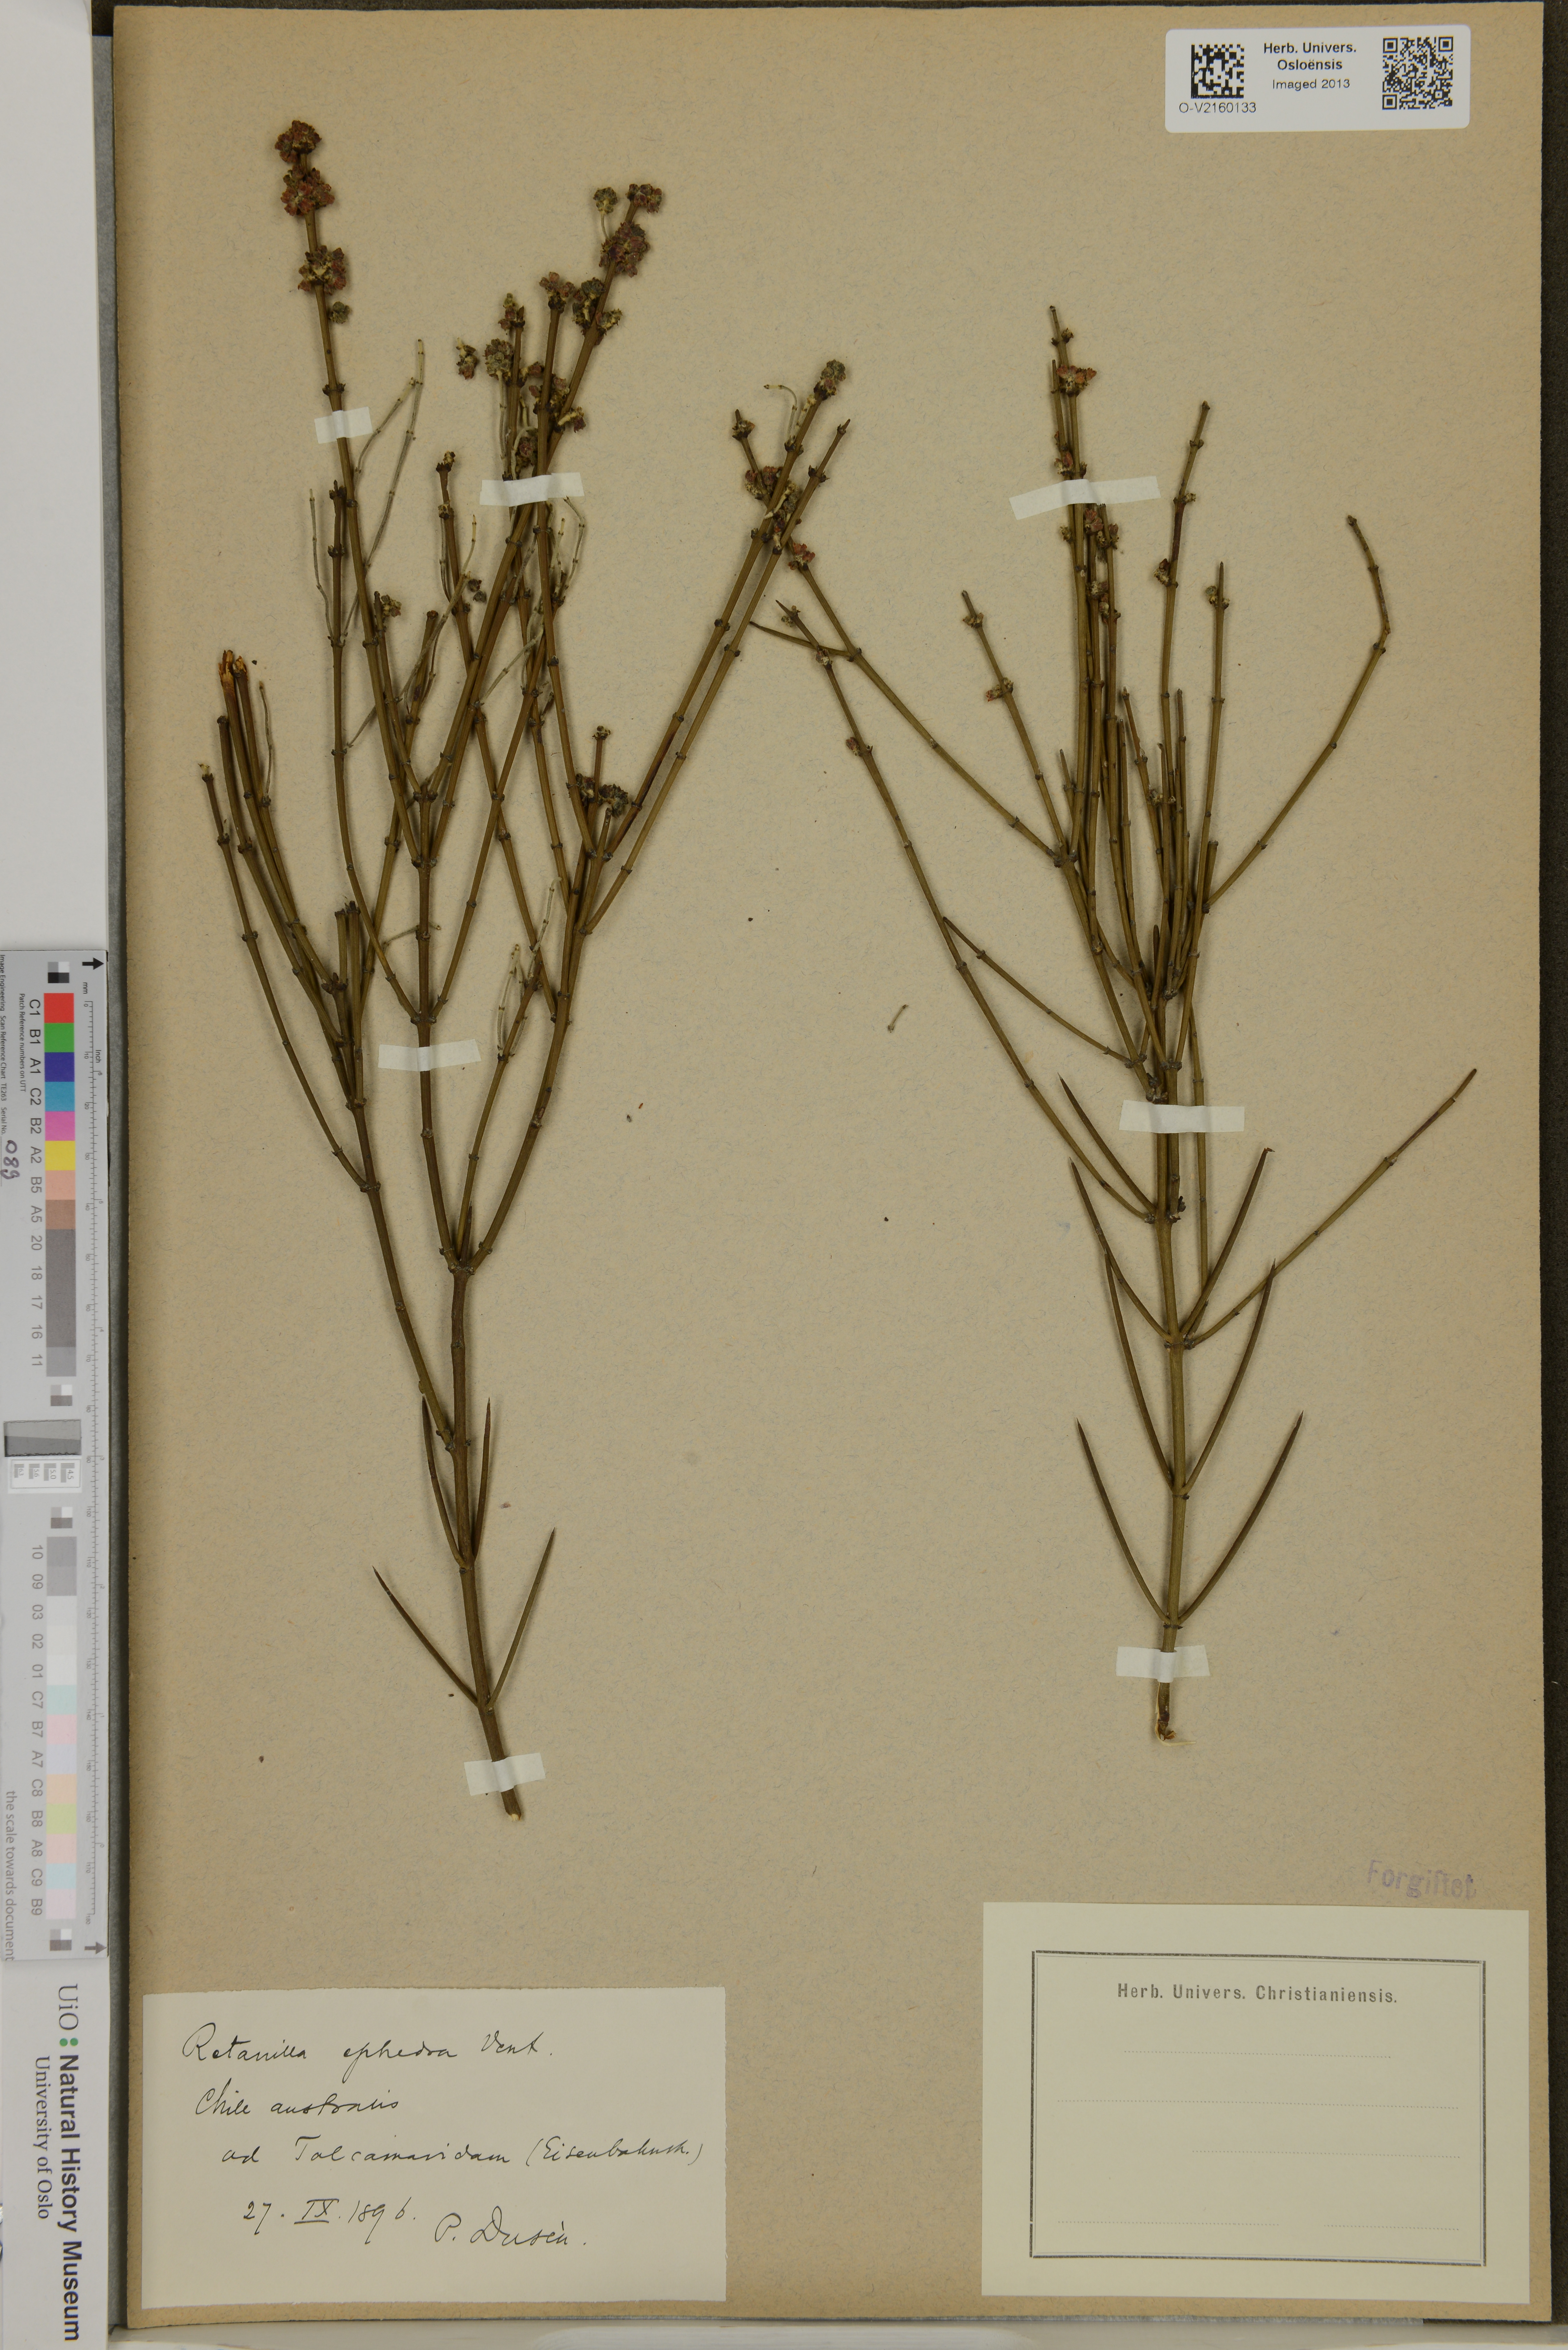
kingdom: Plantae
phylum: Tracheophyta
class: Magnoliopsida
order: Rosales
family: Rhamnaceae
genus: Retanilla
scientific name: Retanilla ephedra
